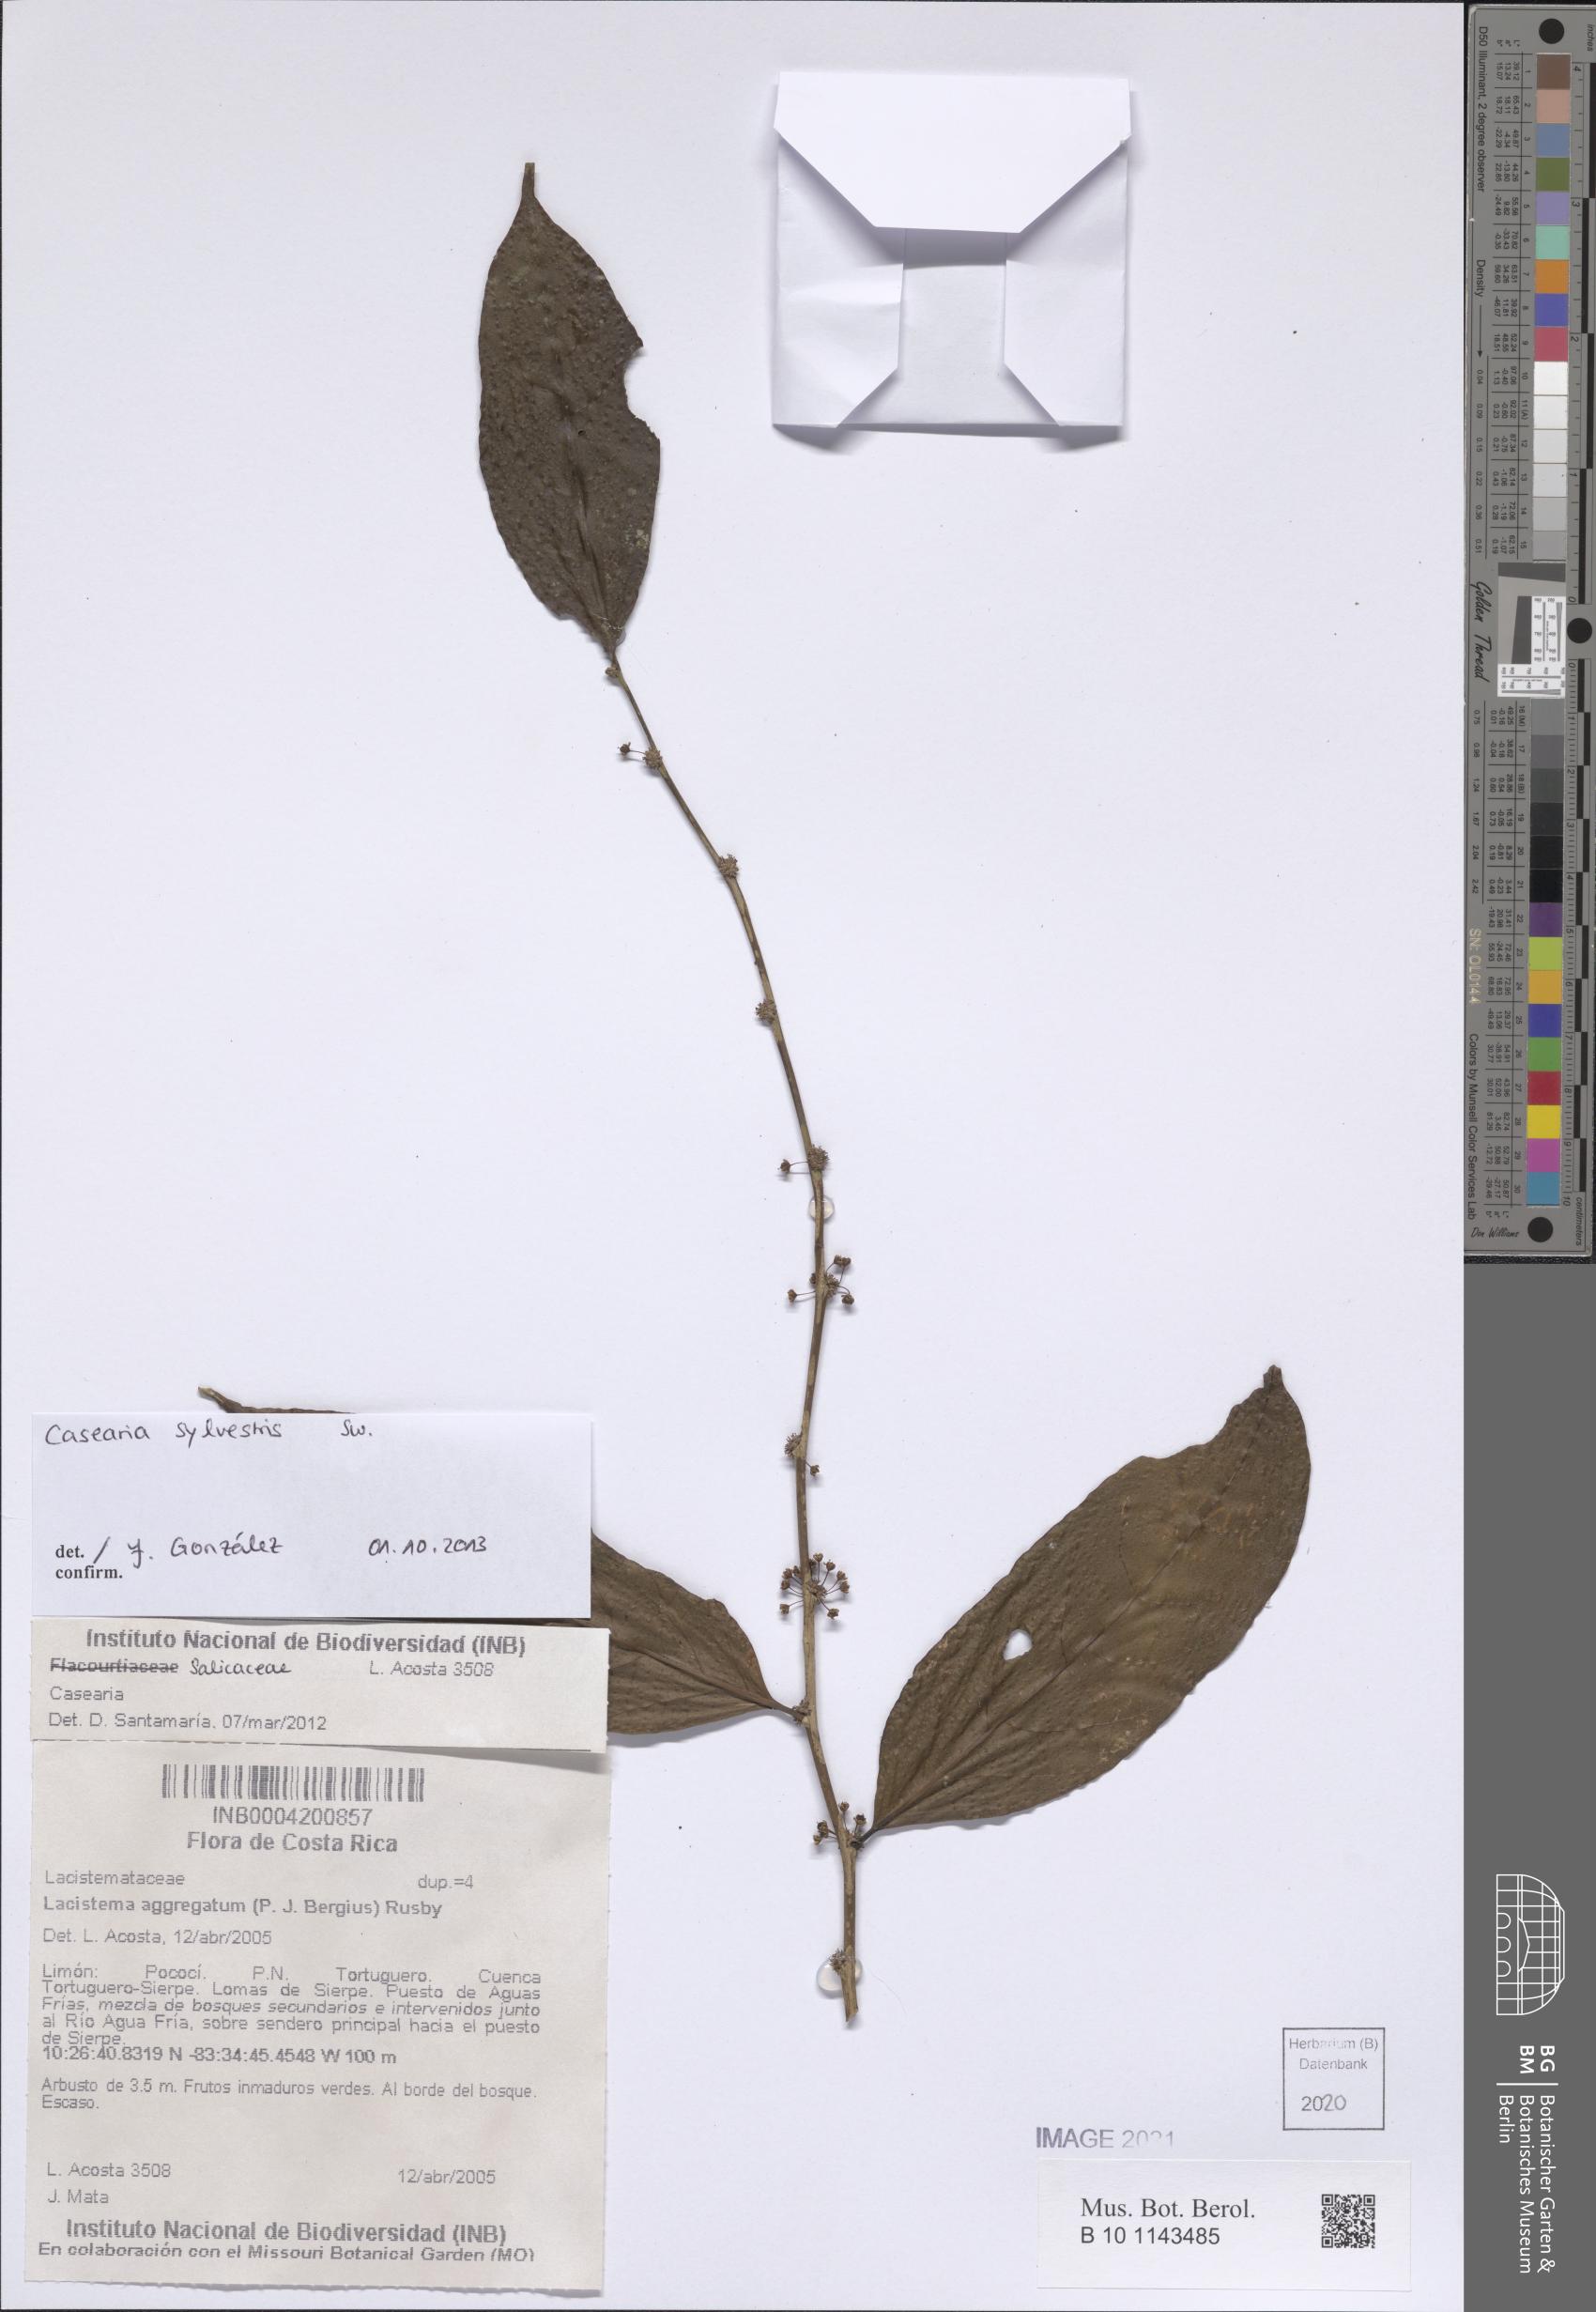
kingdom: Plantae
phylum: Tracheophyta
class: Magnoliopsida
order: Malpighiales
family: Salicaceae
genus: Casearia
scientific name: Casearia sylvestris
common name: Wild sage
